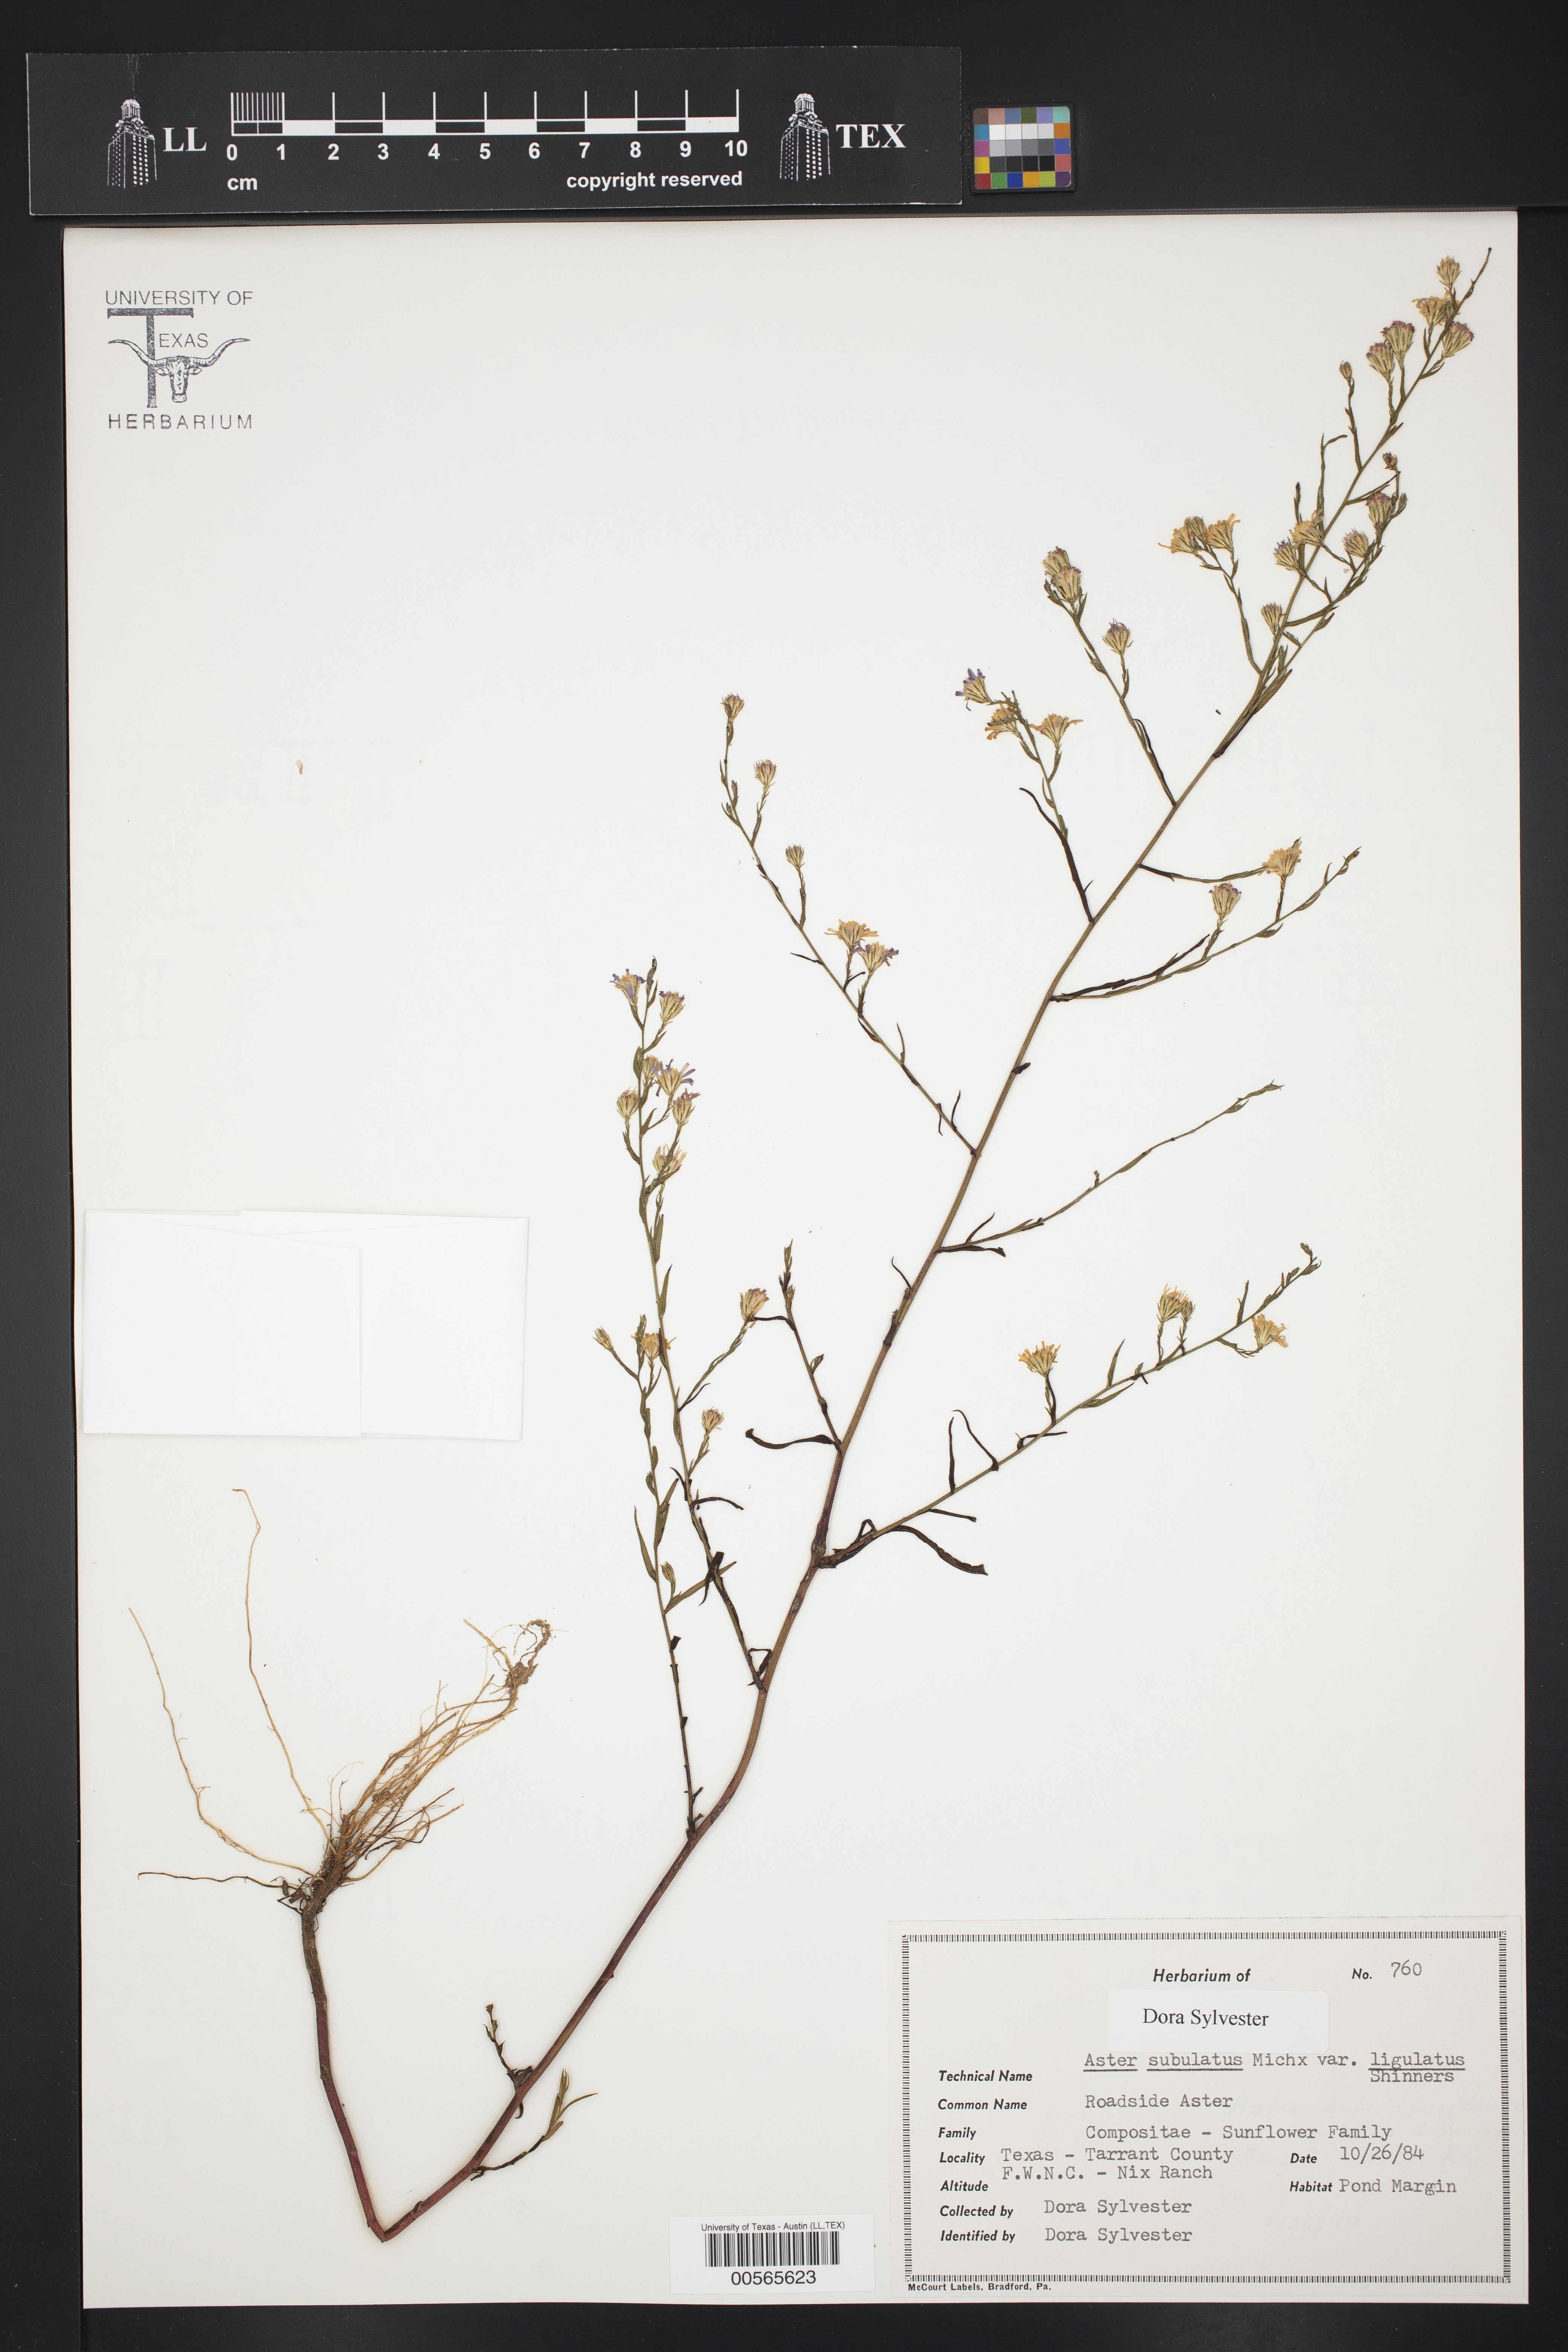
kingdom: Plantae
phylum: Tracheophyta
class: Magnoliopsida
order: Asterales
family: Asteraceae
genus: Symphyotrichum
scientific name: Symphyotrichum divaricatum
